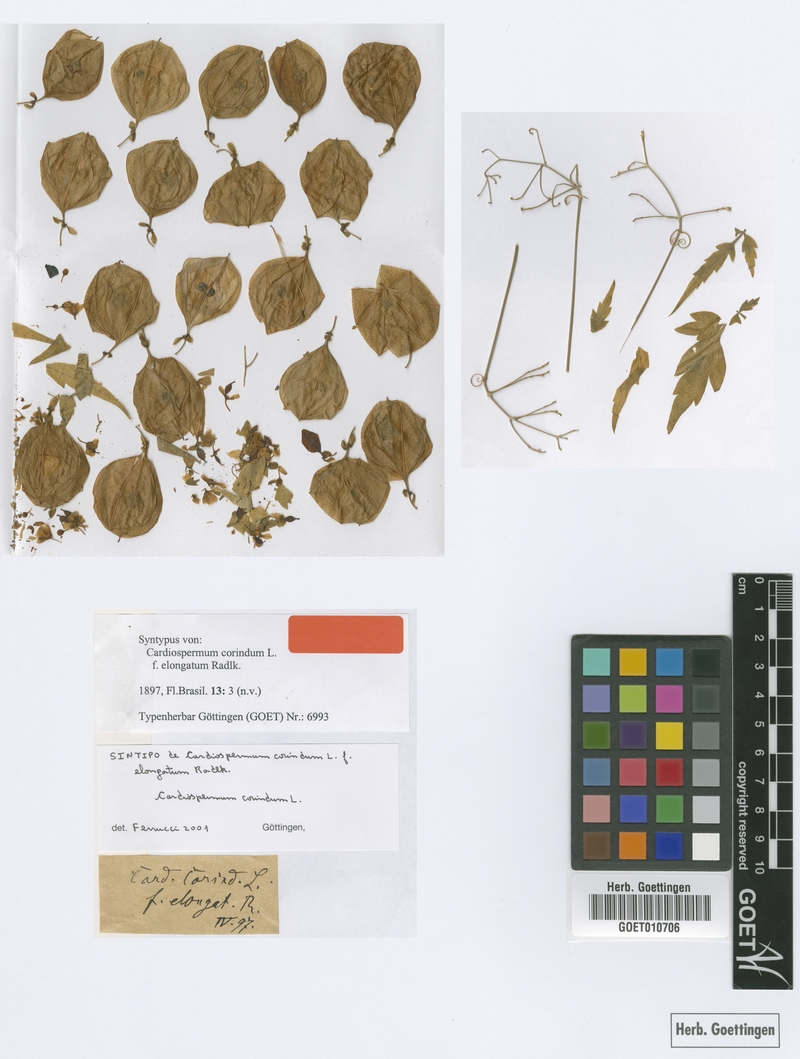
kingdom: Plantae
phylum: Tracheophyta
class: Magnoliopsida
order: Sapindales
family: Sapindaceae
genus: Cardiospermum
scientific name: Cardiospermum corindum
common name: Faux persil
